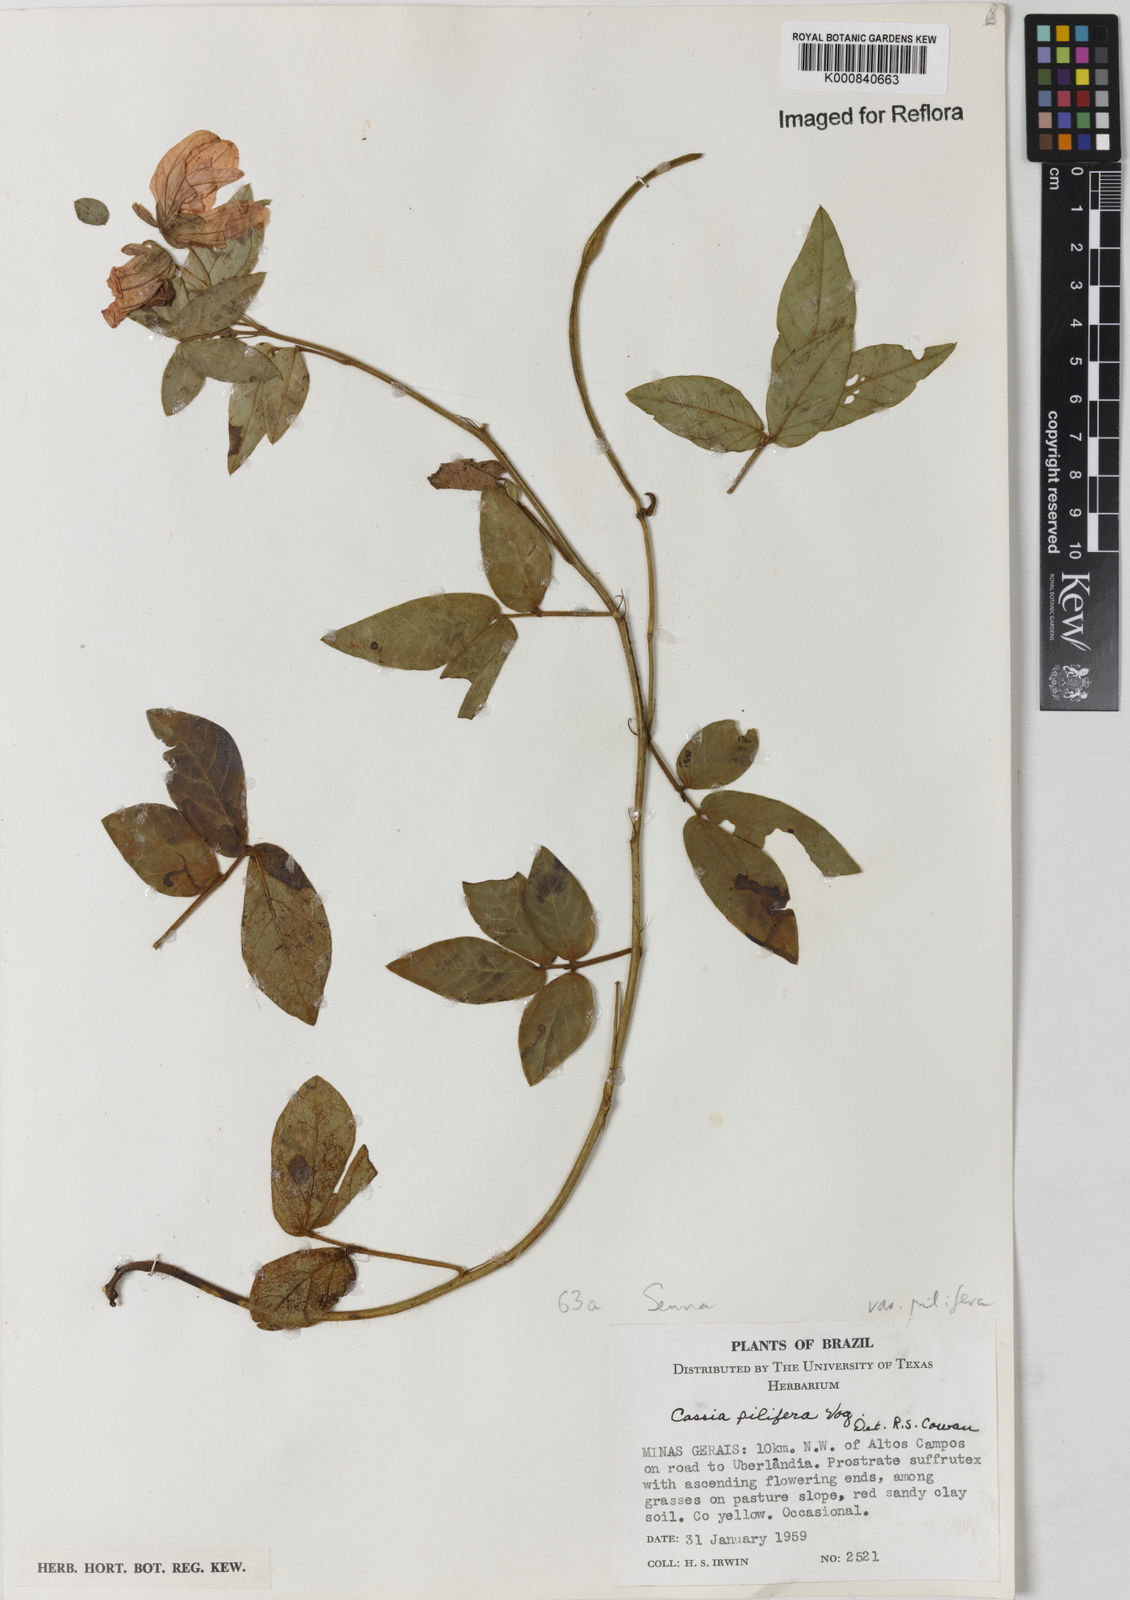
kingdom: Plantae
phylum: Tracheophyta
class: Magnoliopsida
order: Fabales
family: Fabaceae
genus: Senna
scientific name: Senna pilifera
